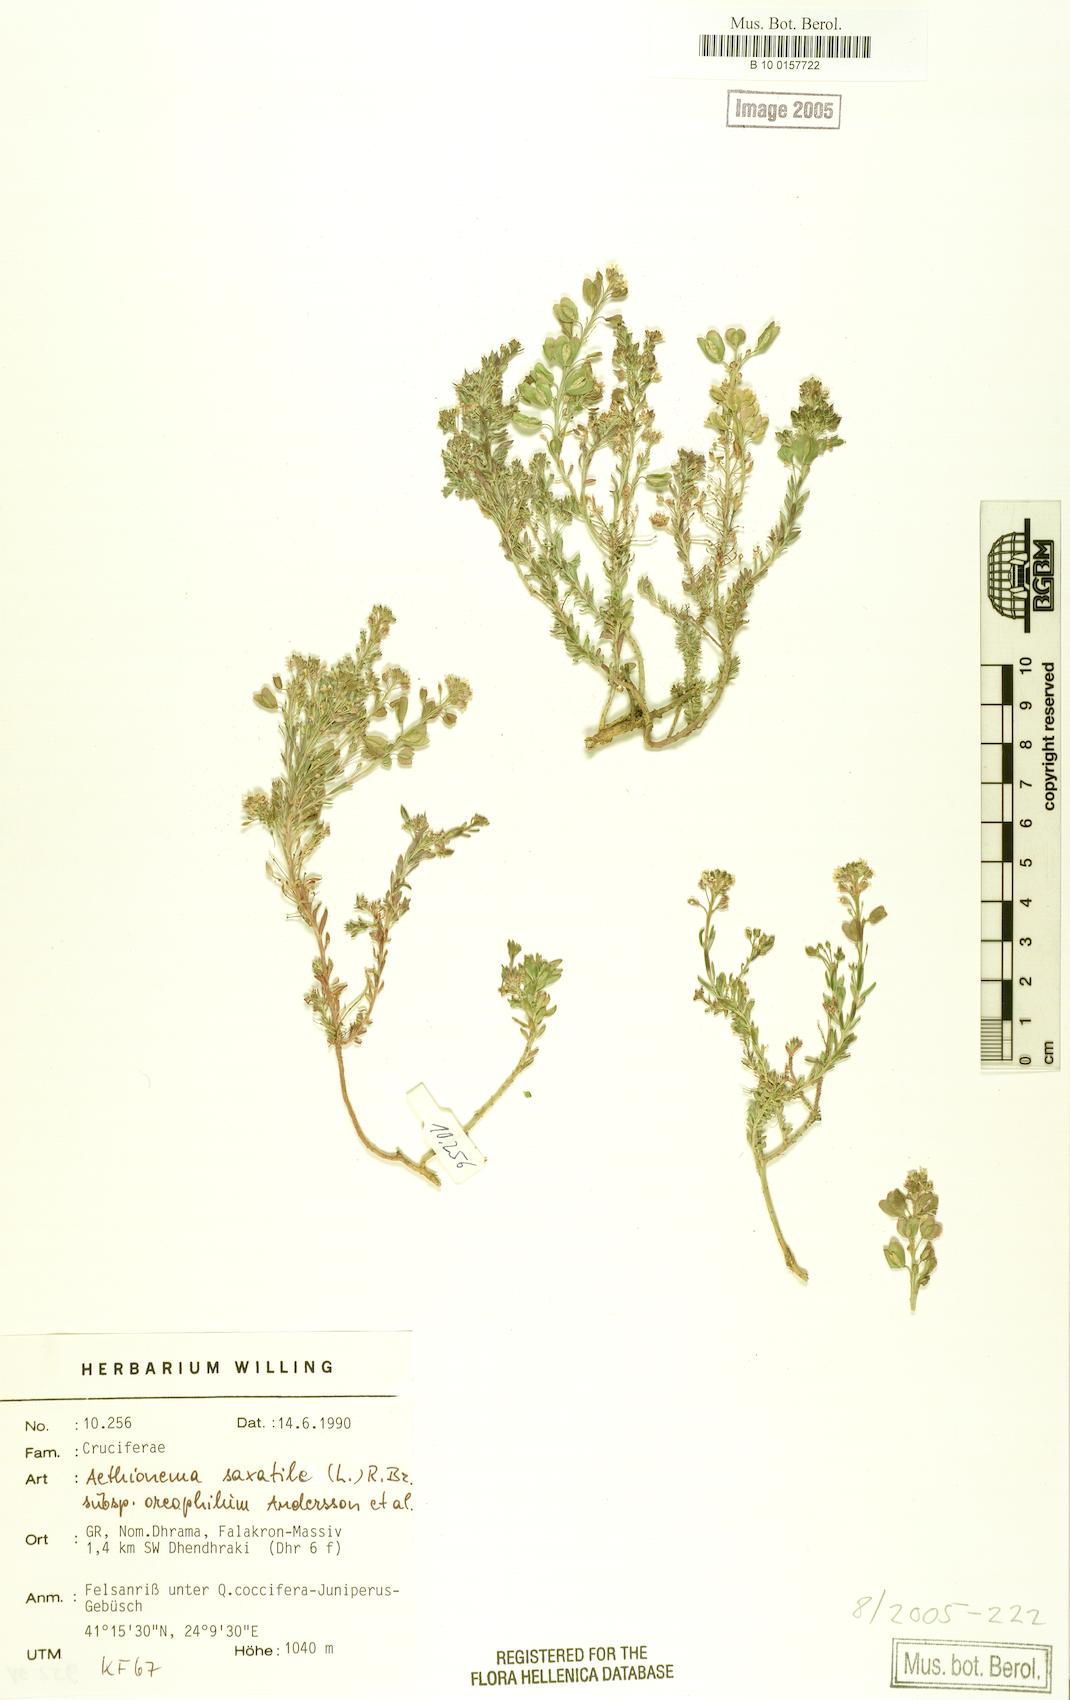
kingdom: Plantae
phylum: Tracheophyta
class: Magnoliopsida
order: Brassicales
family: Brassicaceae
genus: Aethionema
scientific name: Aethionema saxatile
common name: Burnt candytuft
